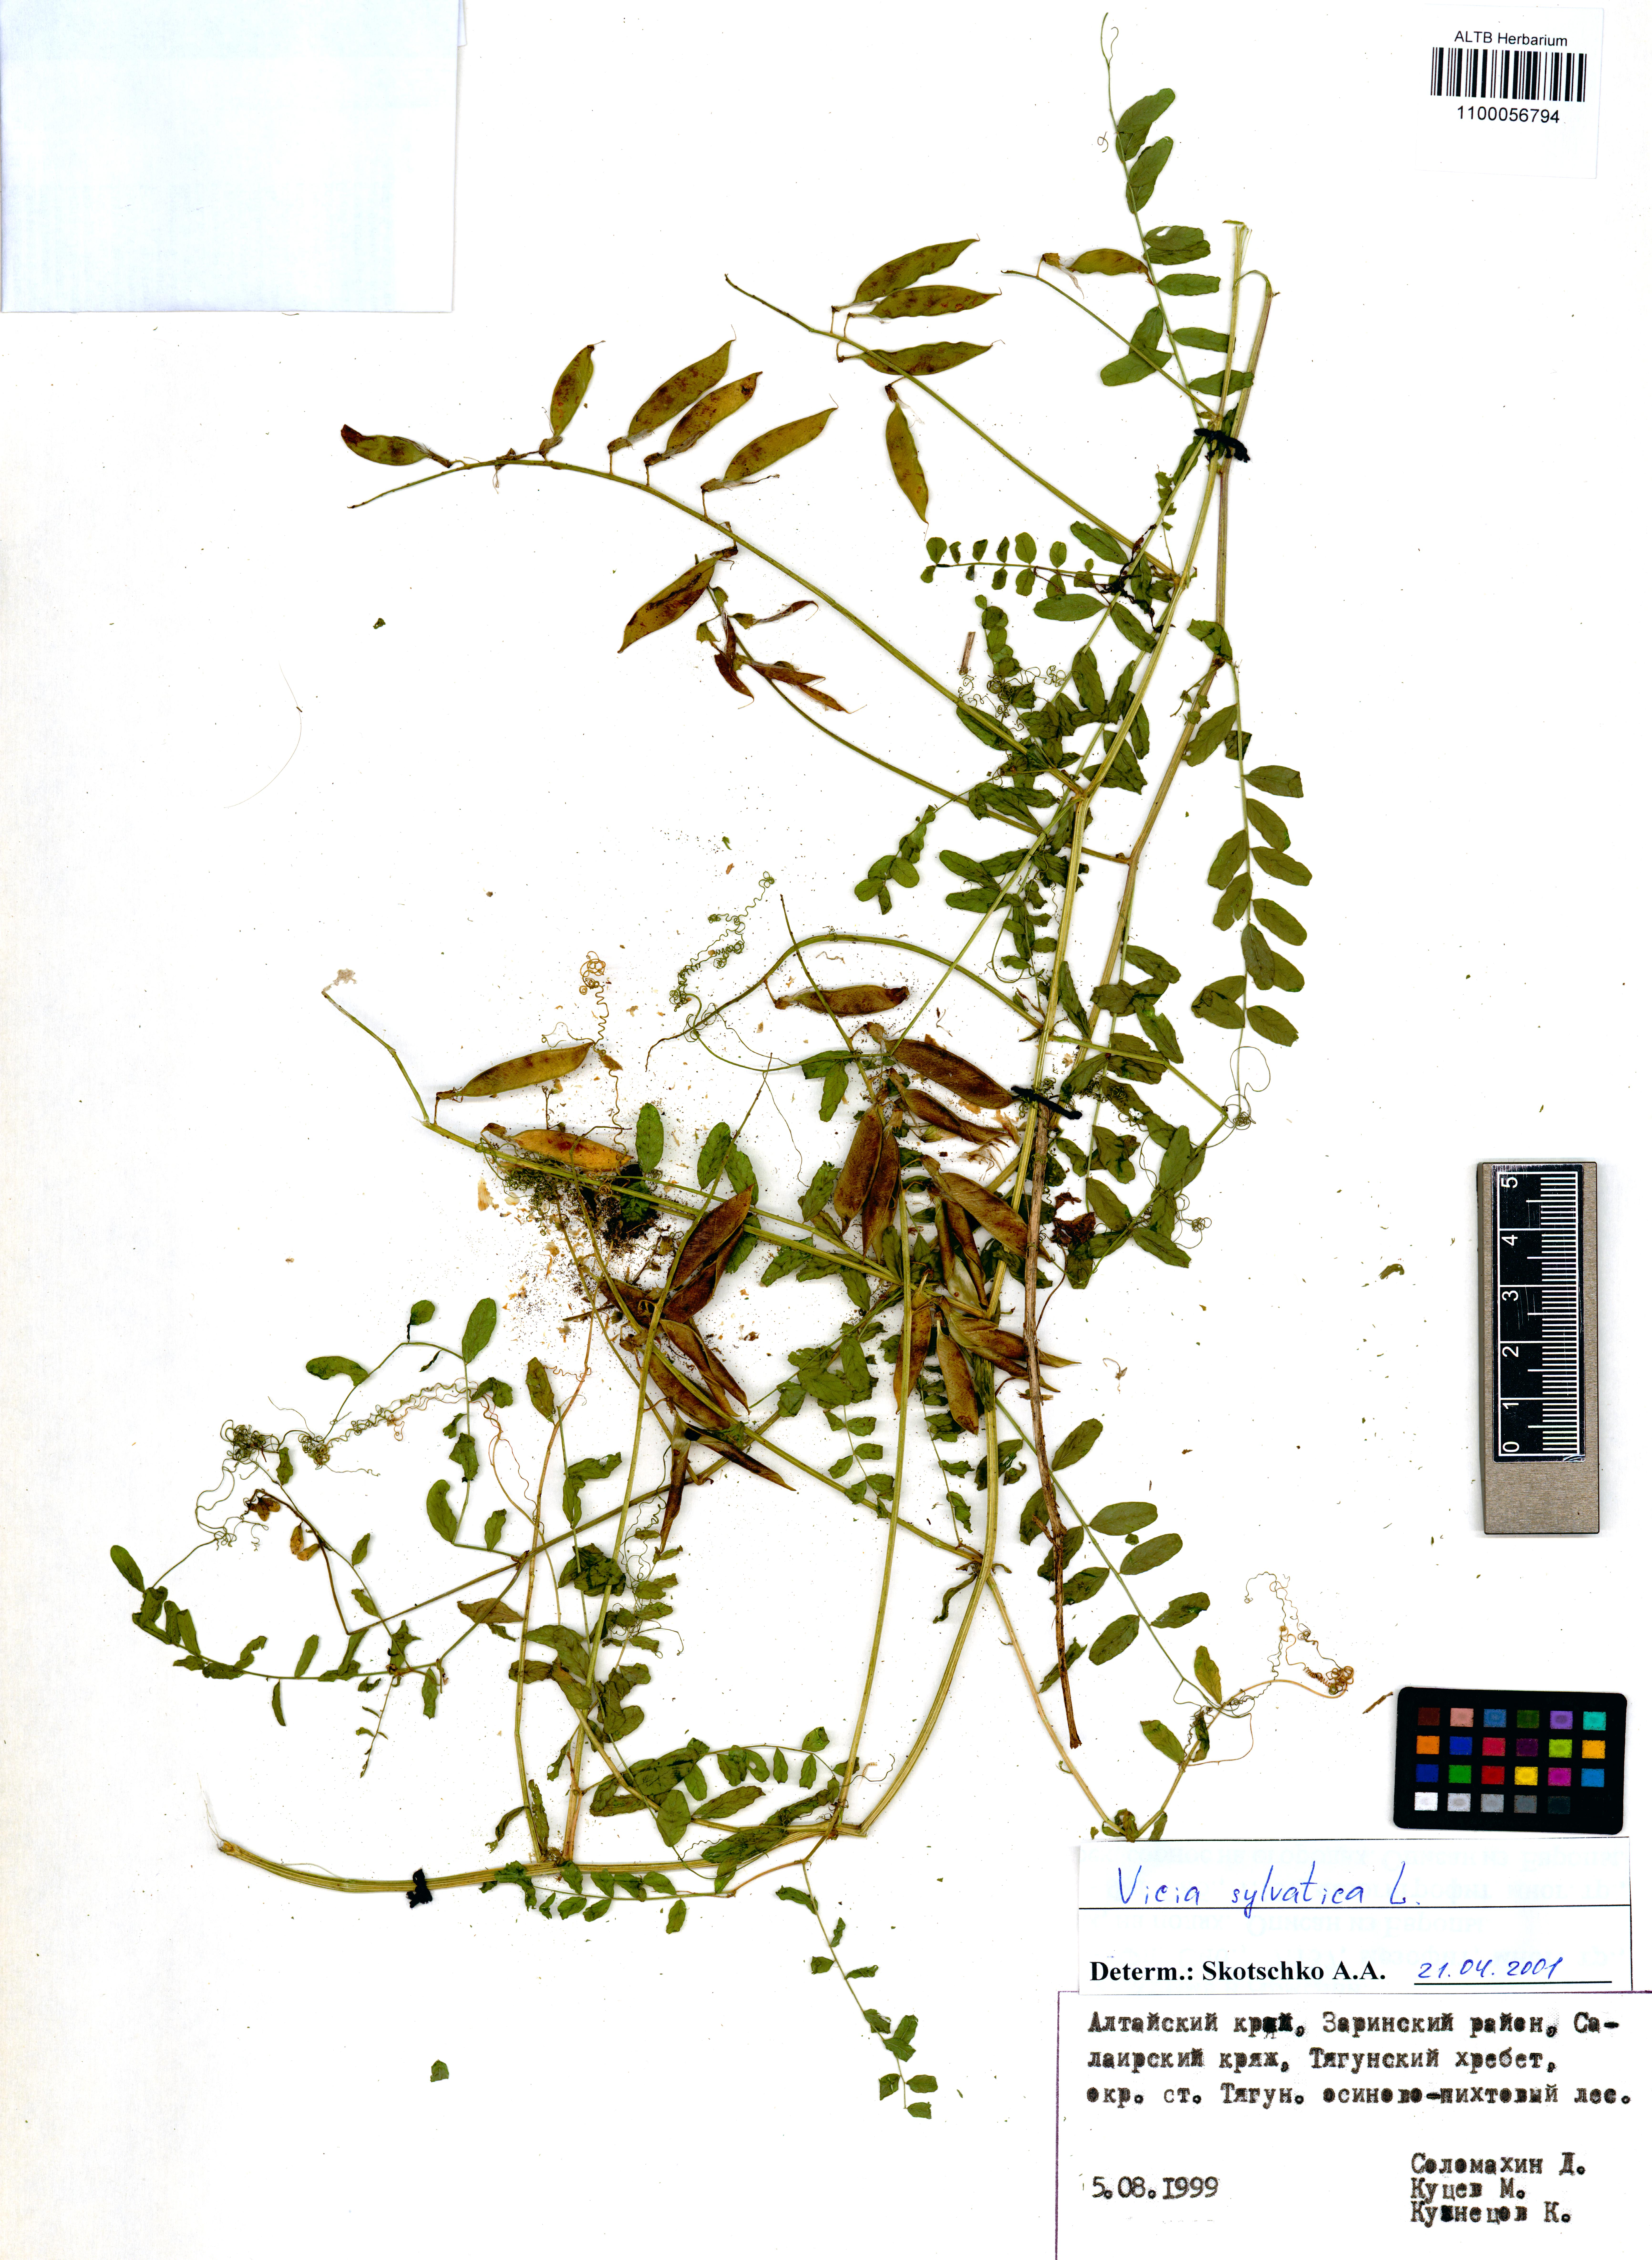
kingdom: Plantae
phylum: Tracheophyta
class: Magnoliopsida
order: Fabales
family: Fabaceae
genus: Vicia
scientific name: Vicia sylvatica
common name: Wood vetch
